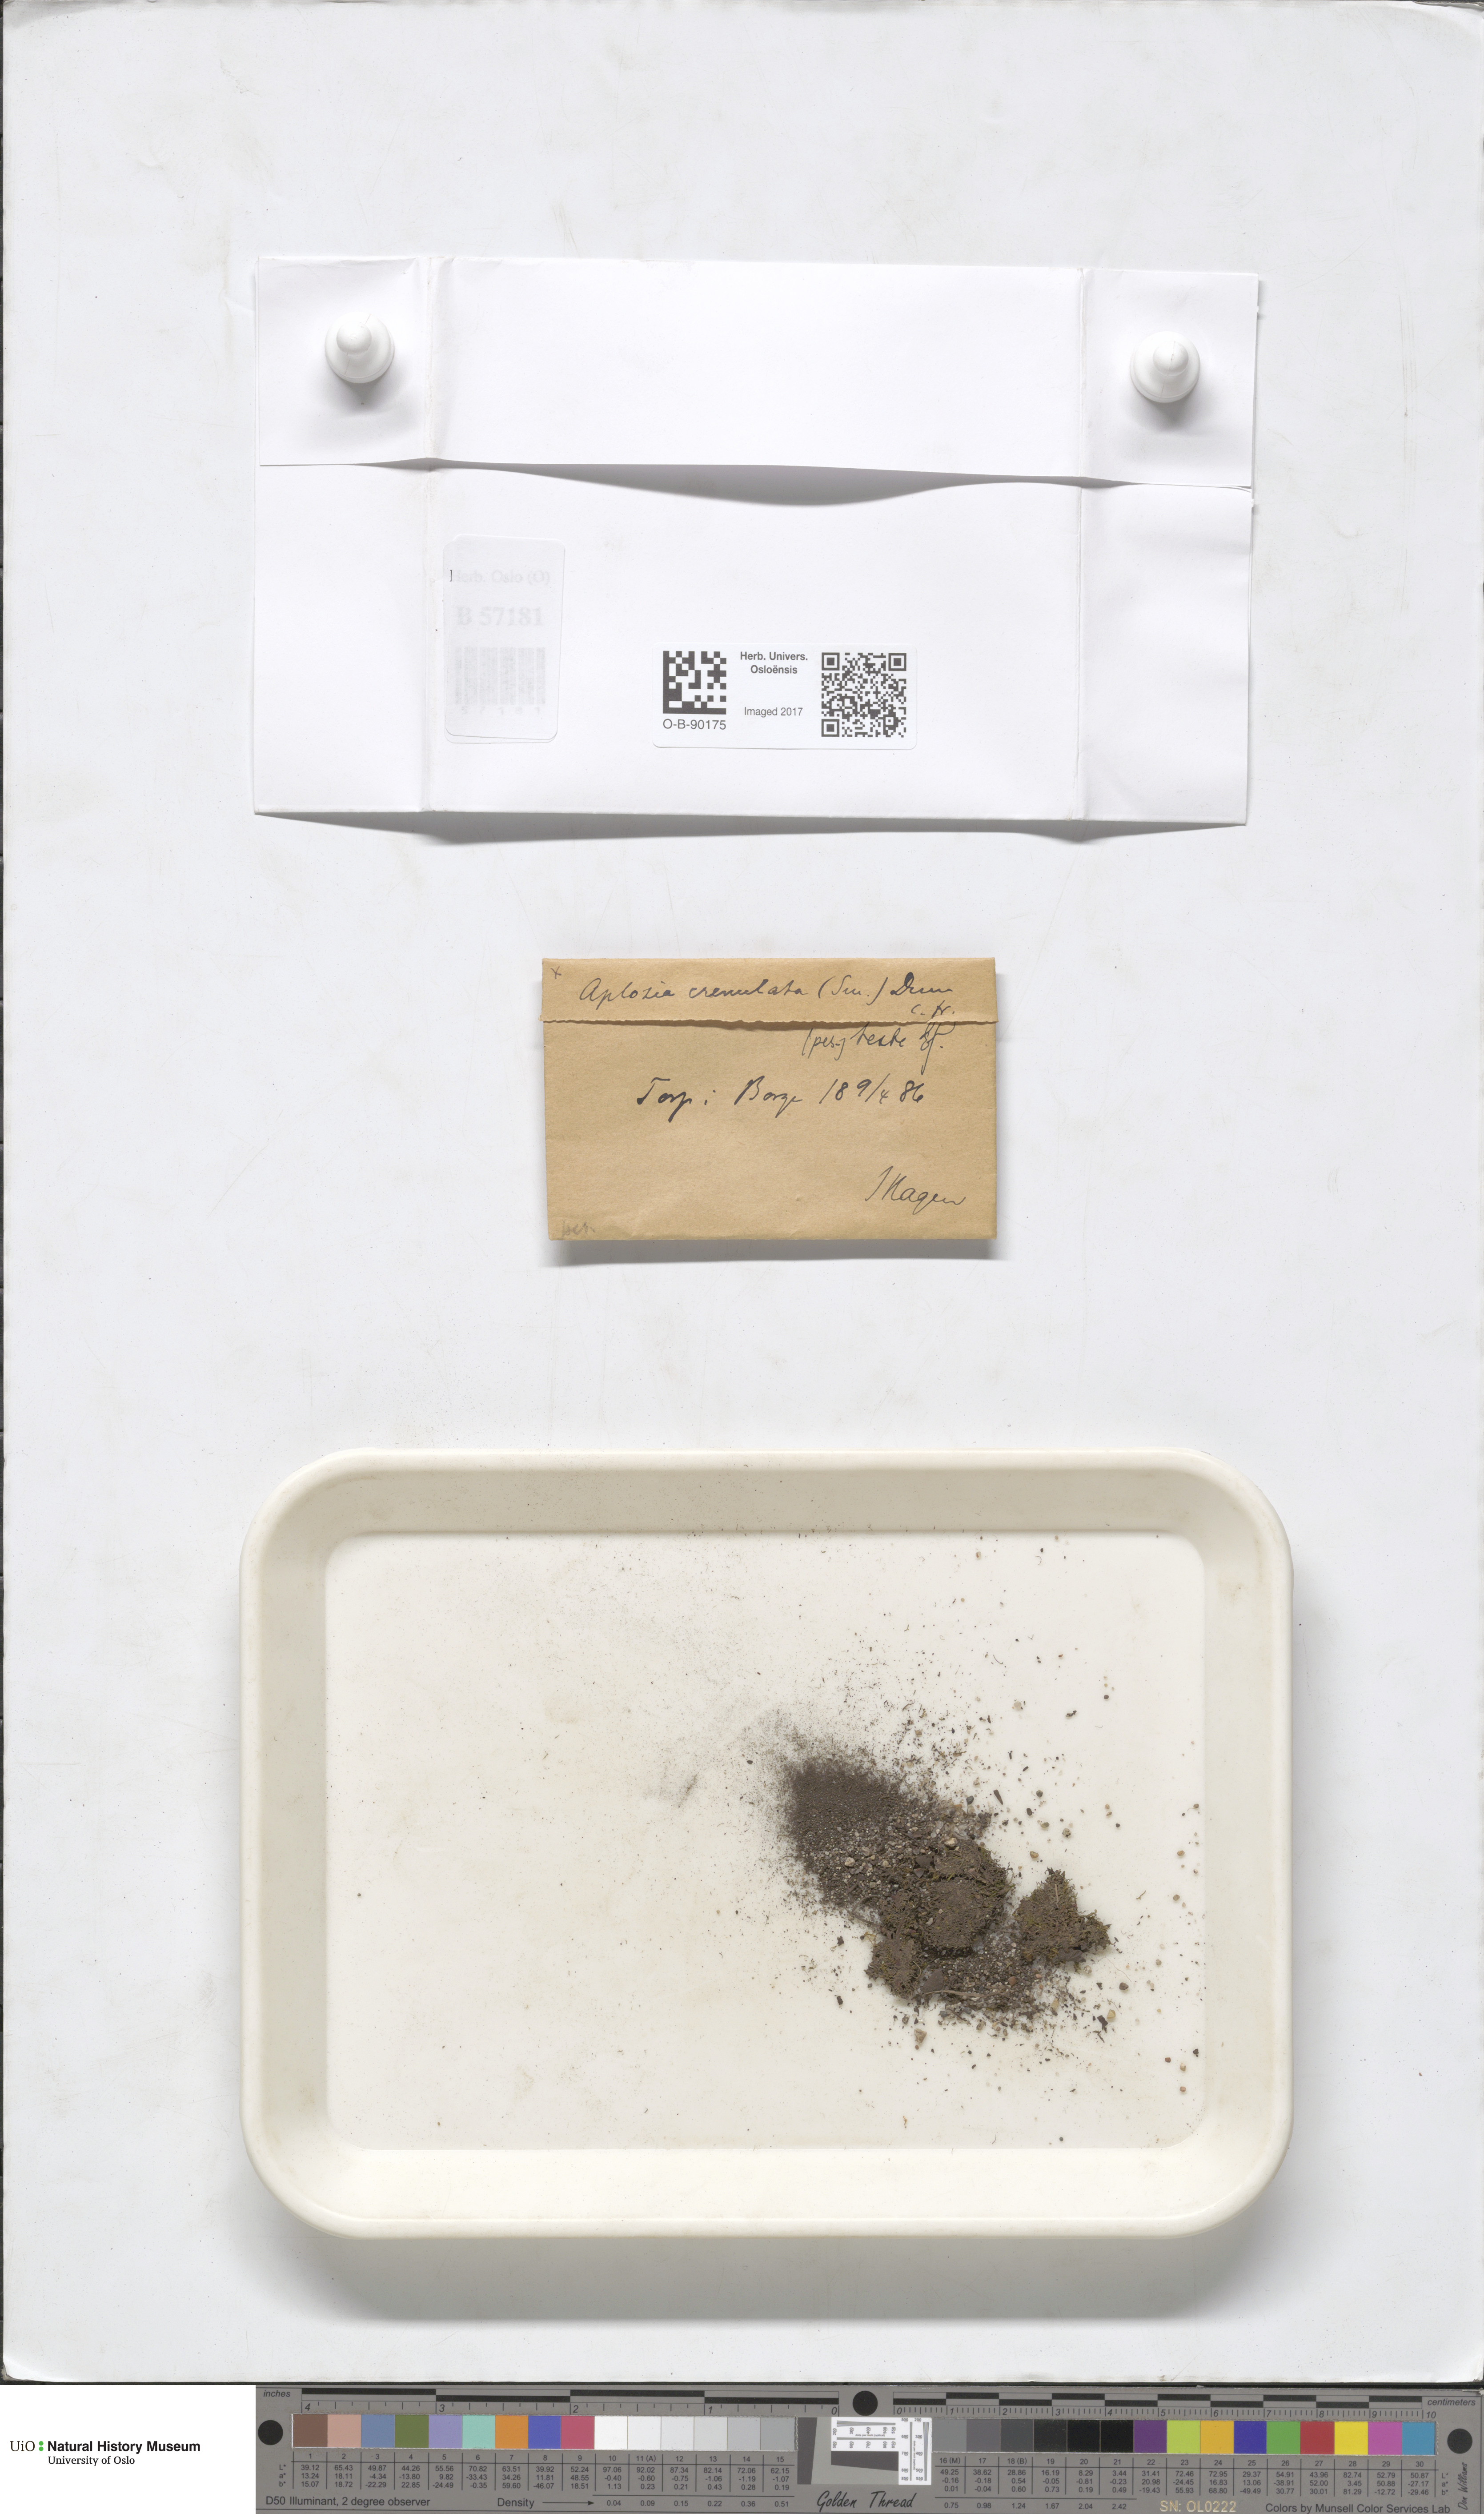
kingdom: Plantae
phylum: Marchantiophyta
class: Jungermanniopsida
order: Jungermanniales
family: Solenostomataceae
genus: Solenostoma
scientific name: Solenostoma gracillimum
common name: Crenulated flapwort
